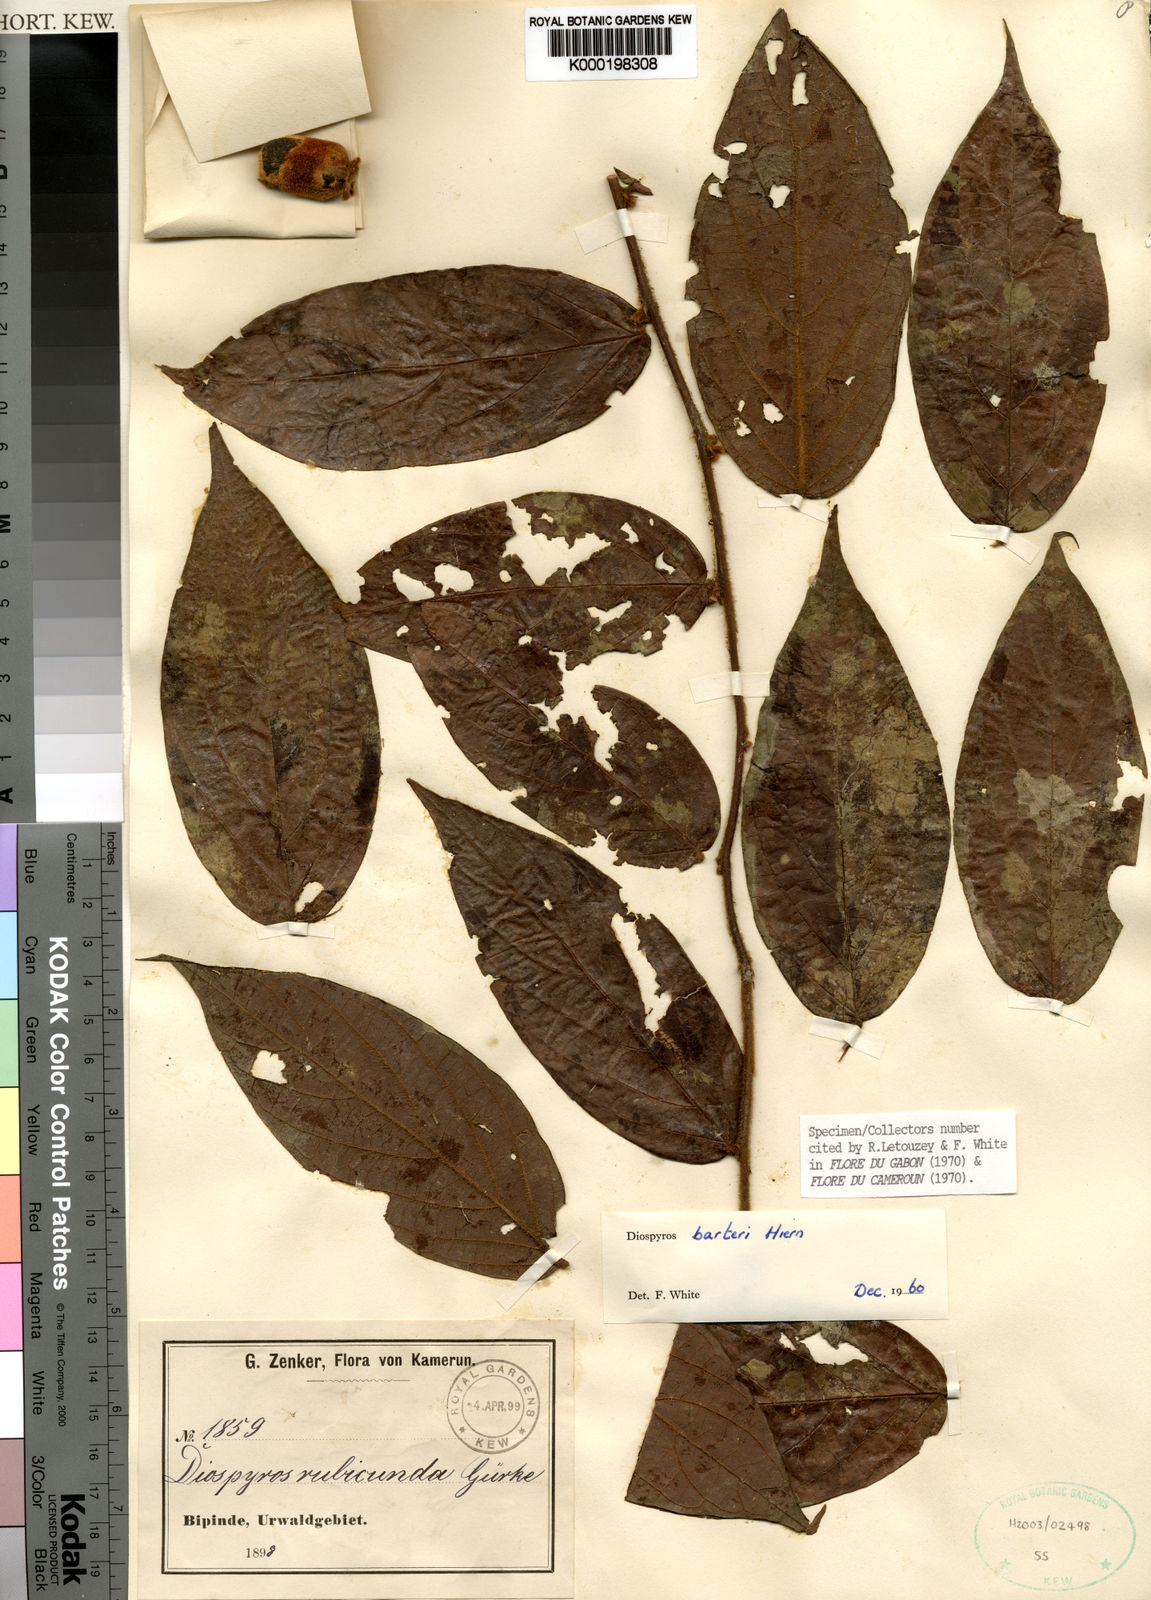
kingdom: Plantae
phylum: Tracheophyta
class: Magnoliopsida
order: Ericales
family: Ebenaceae
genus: Diospyros
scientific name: Diospyros barteri
